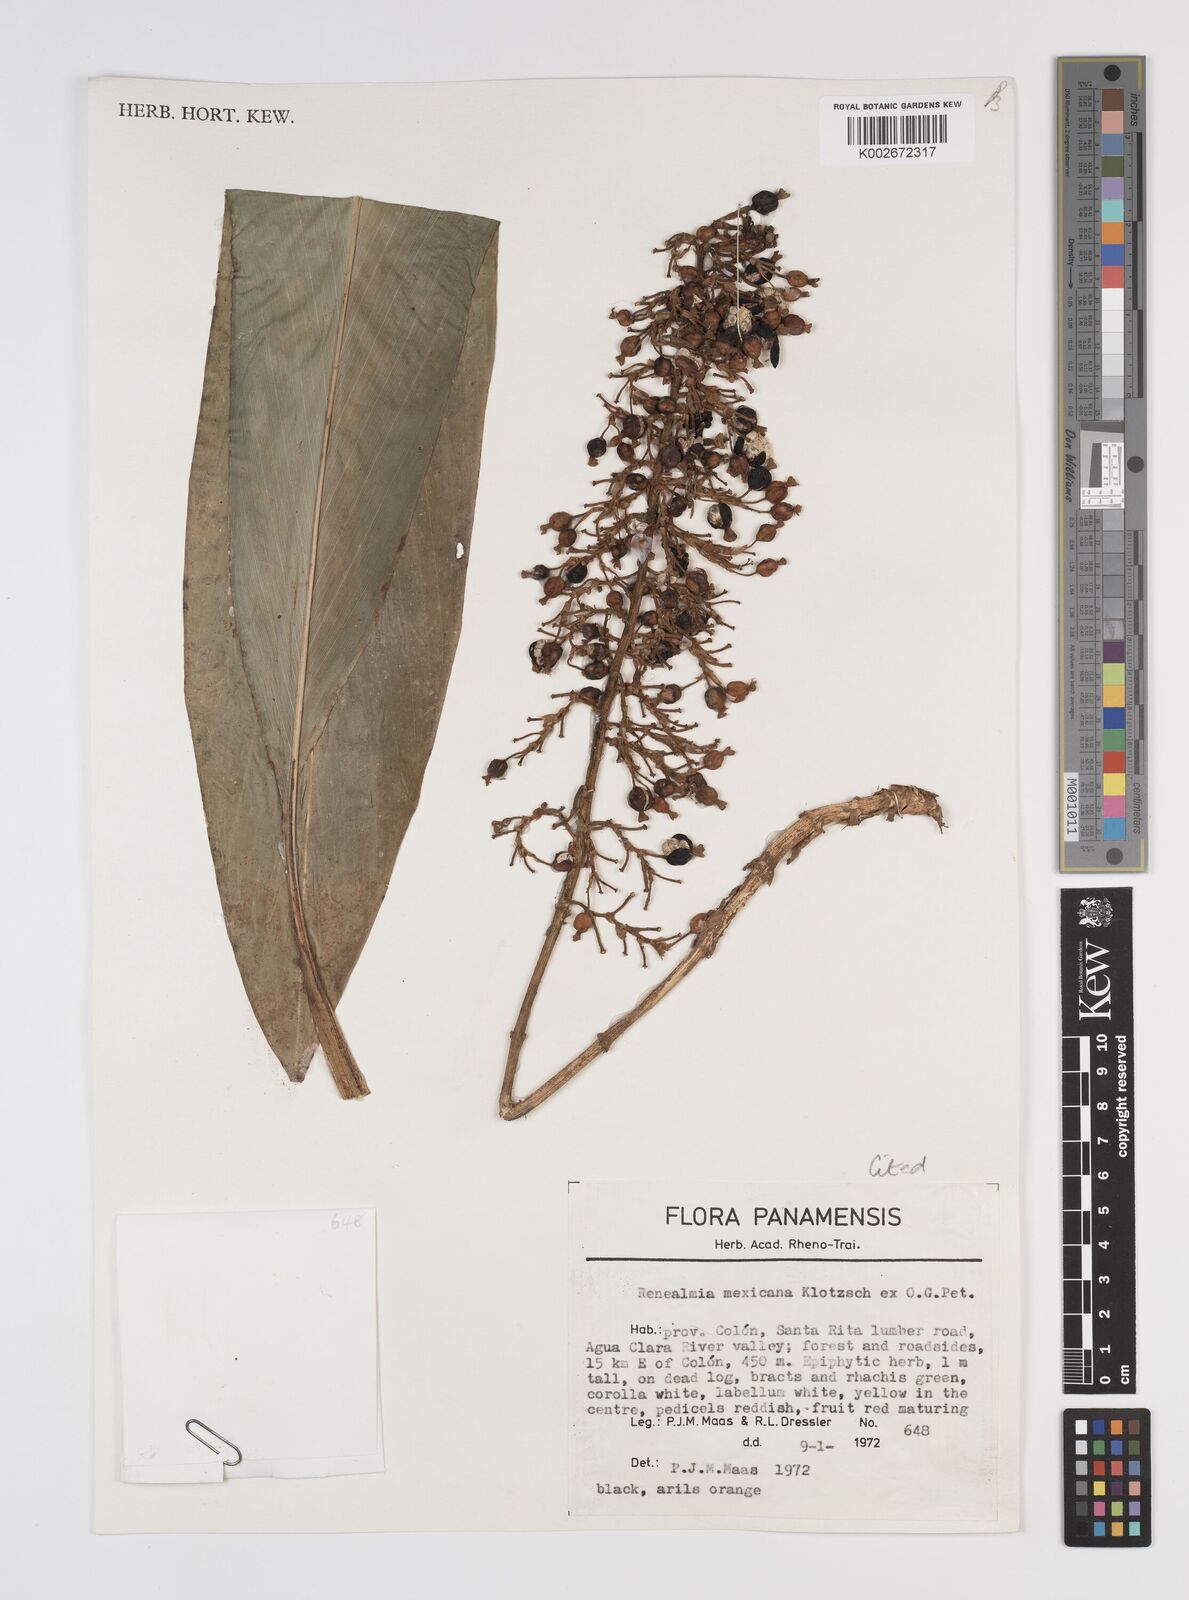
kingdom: Plantae
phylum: Tracheophyta
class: Liliopsida
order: Zingiberales
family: Zingiberaceae
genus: Renealmia
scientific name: Renealmia mexicana
